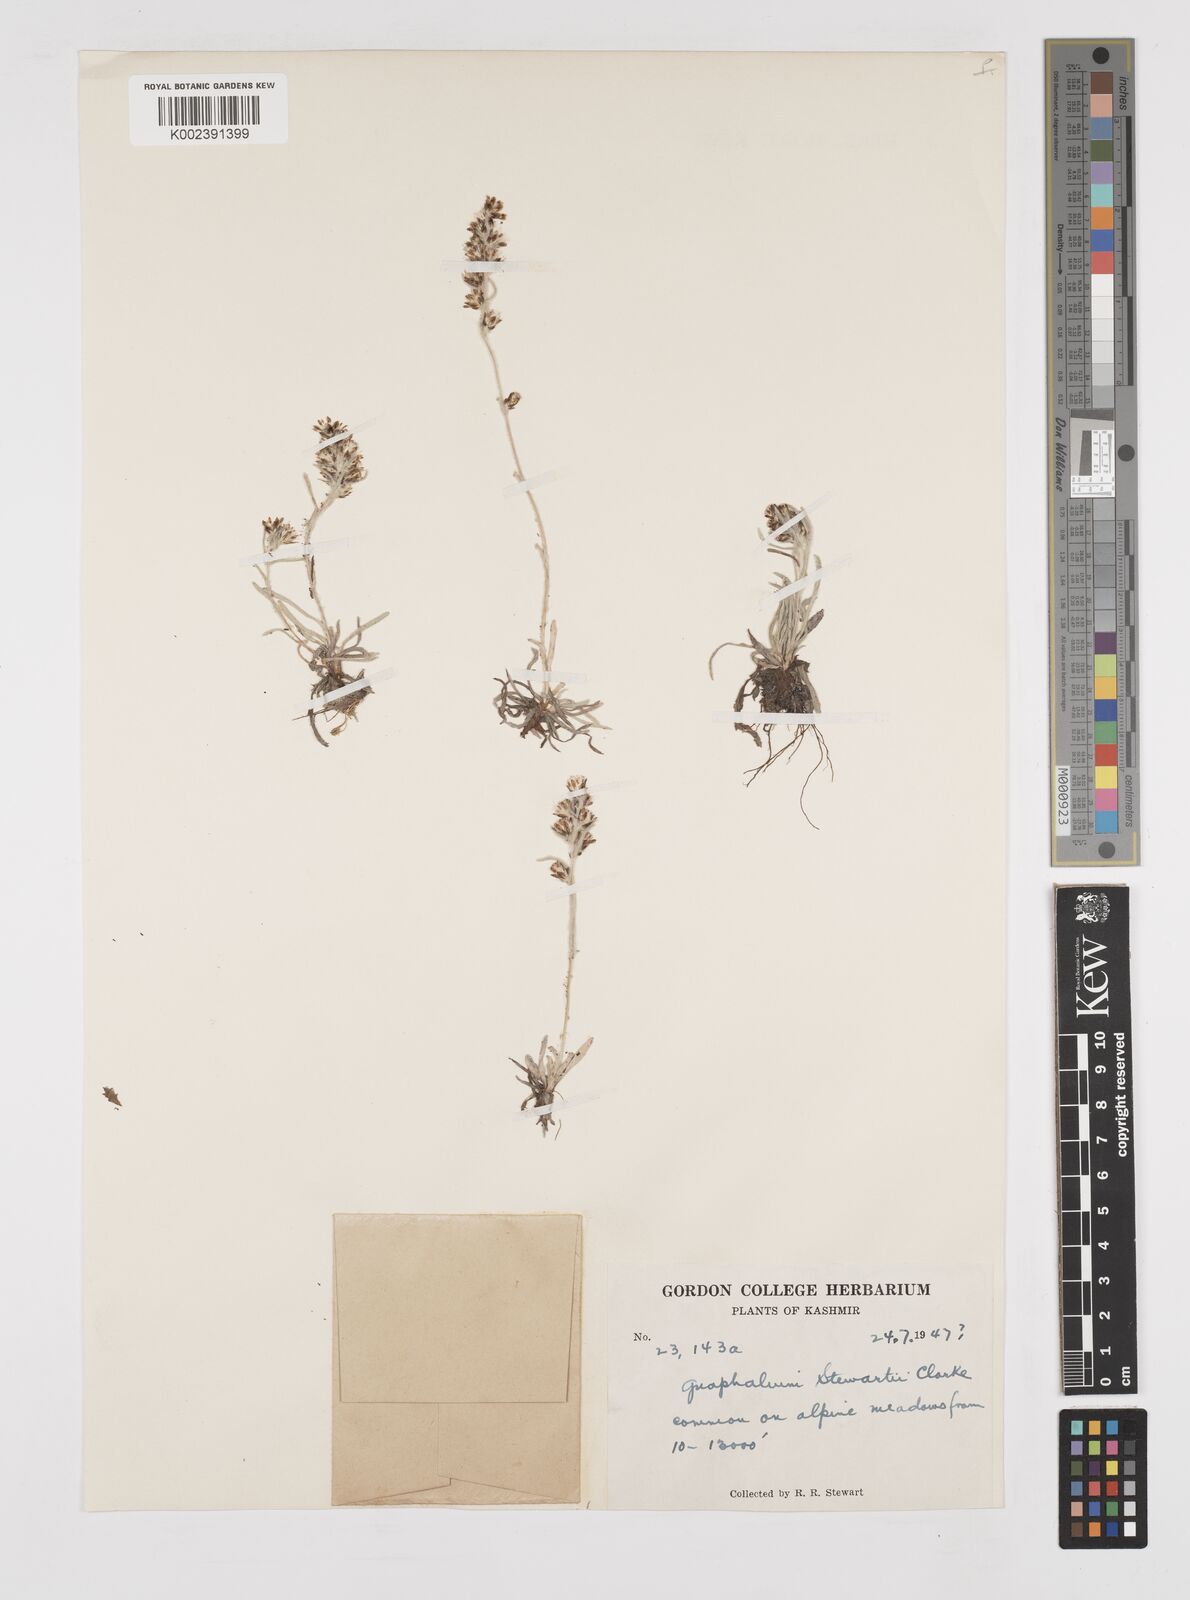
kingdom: Plantae
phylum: Tracheophyta
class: Magnoliopsida
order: Asterales
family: Asteraceae
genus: Gnaphalium
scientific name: Gnaphalium stewartii
